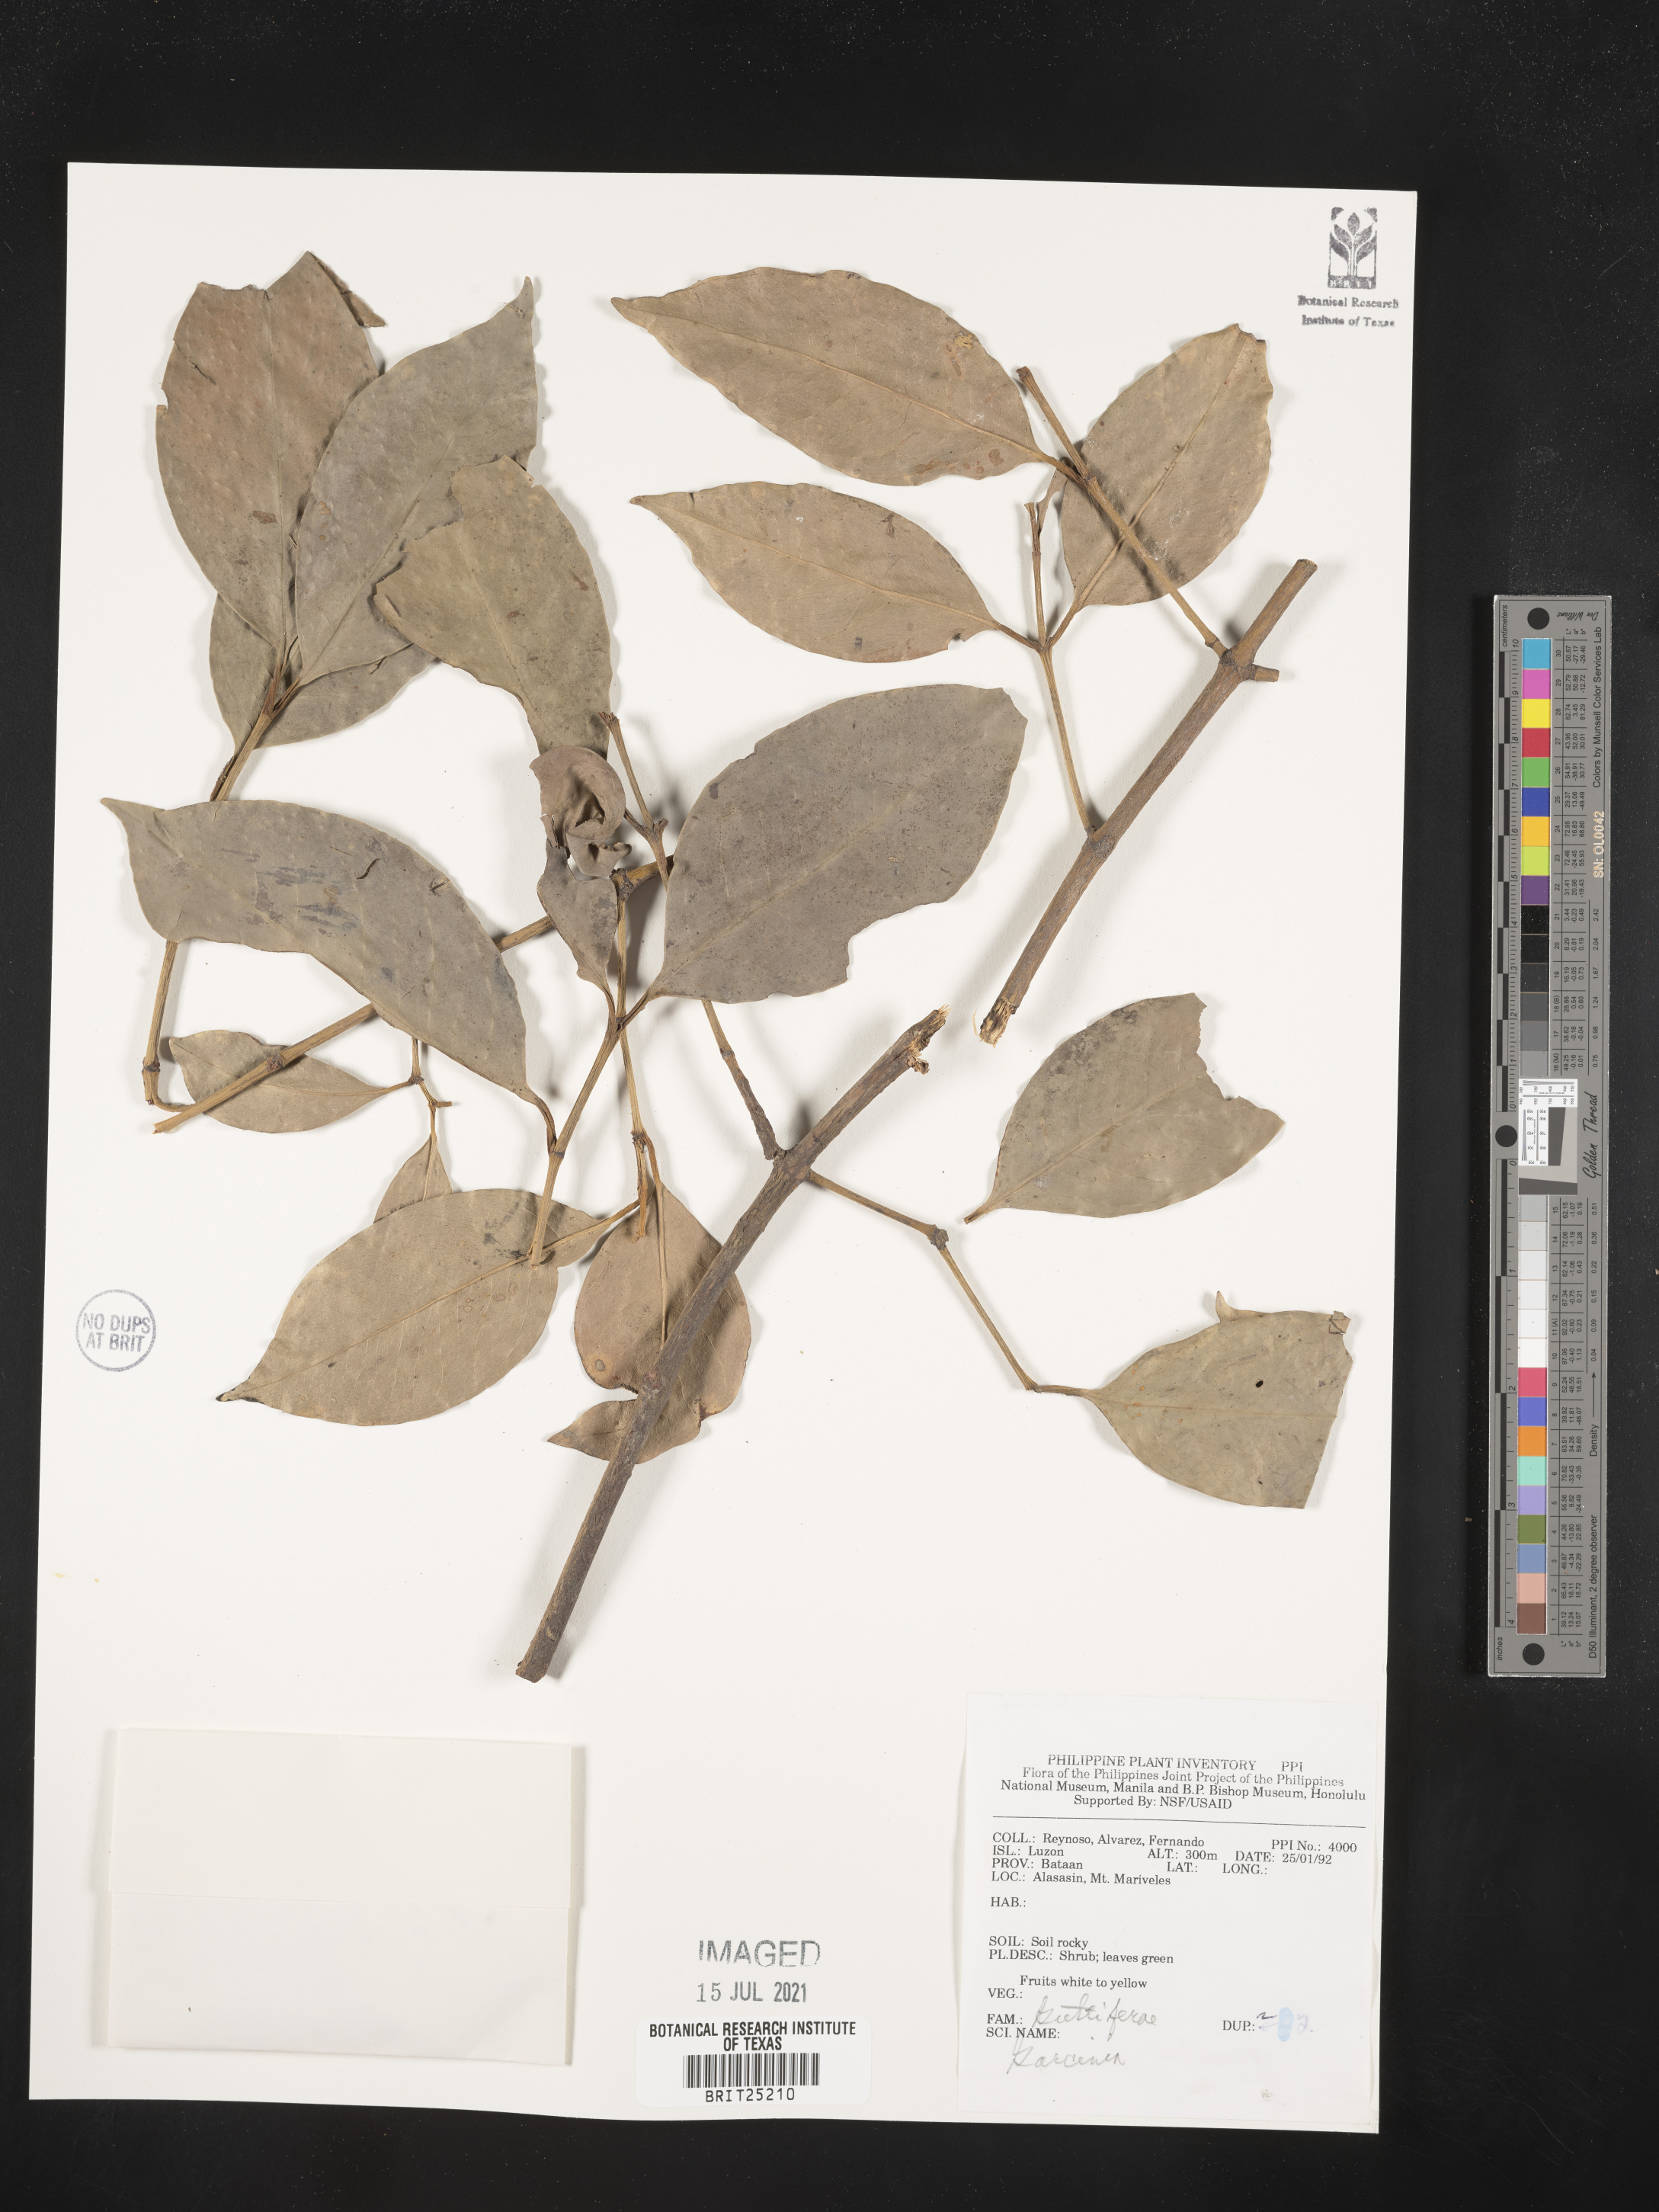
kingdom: Plantae
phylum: Tracheophyta
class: Magnoliopsida
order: Malpighiales
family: Clusiaceae
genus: Garcinia
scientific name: Garcinia
